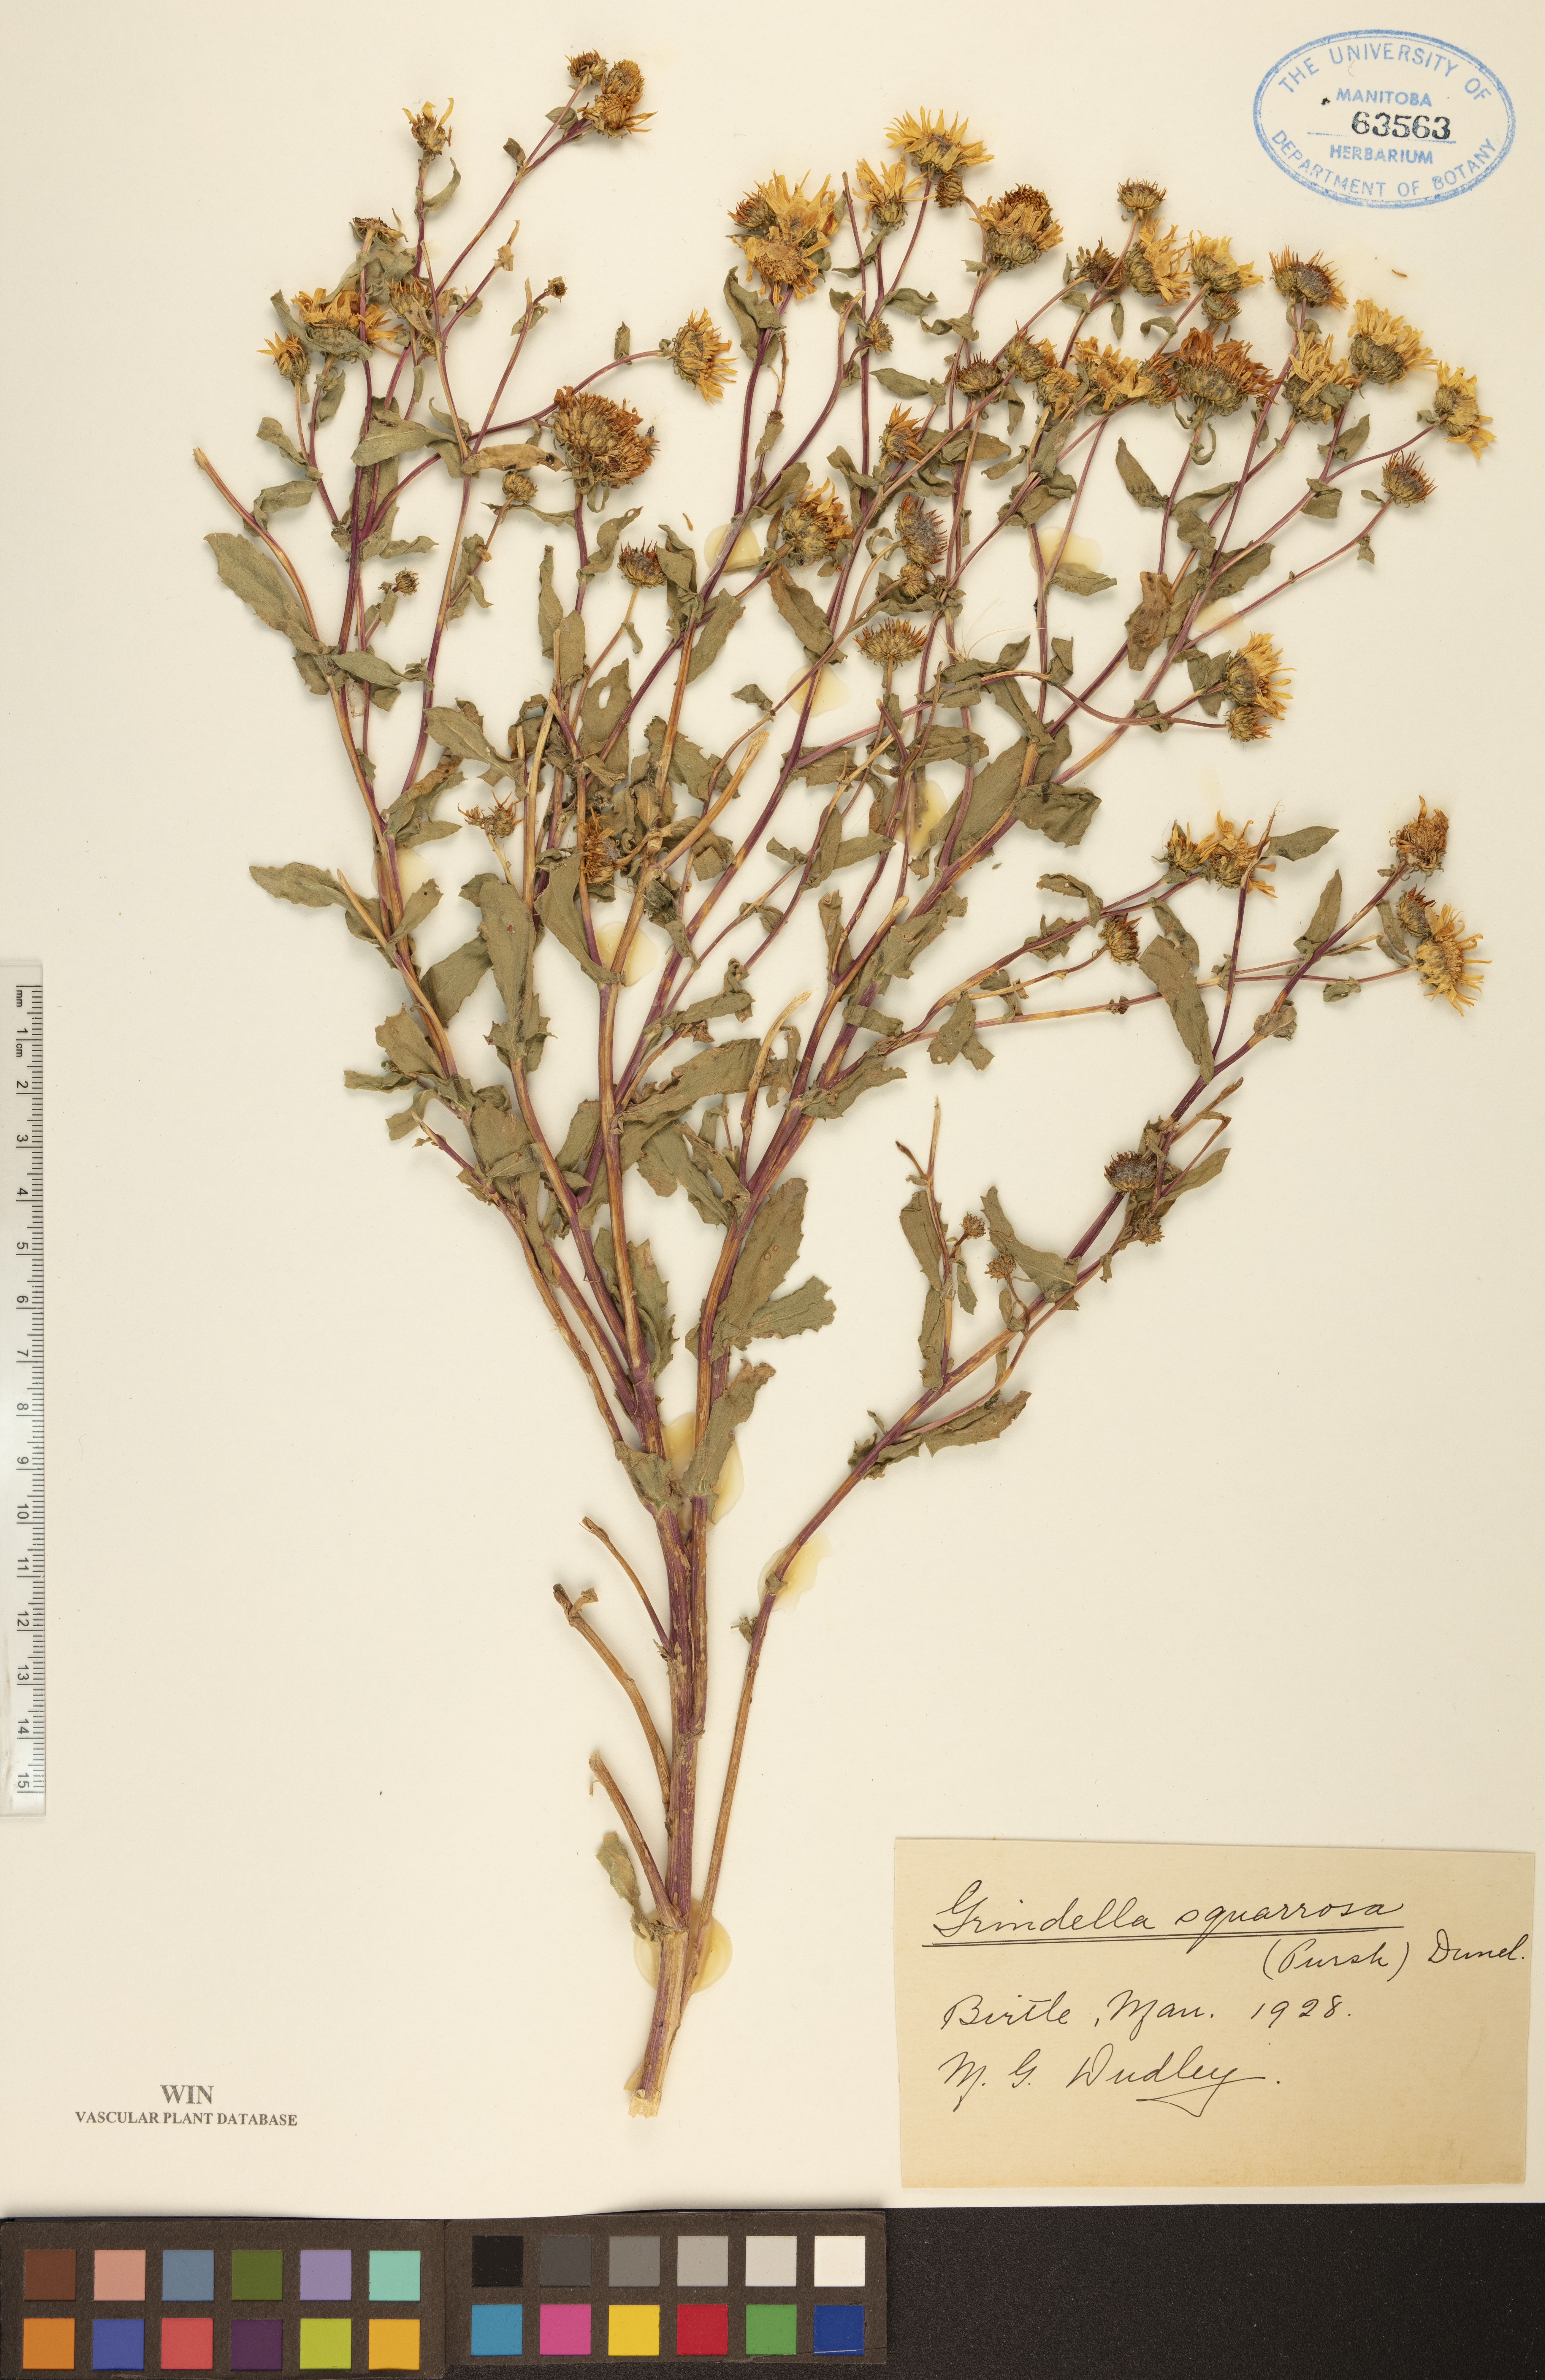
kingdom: Plantae
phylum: Tracheophyta
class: Magnoliopsida
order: Asterales
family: Asteraceae
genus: Grindelia
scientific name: Grindelia squarrosa
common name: Curly-cup gumweed
